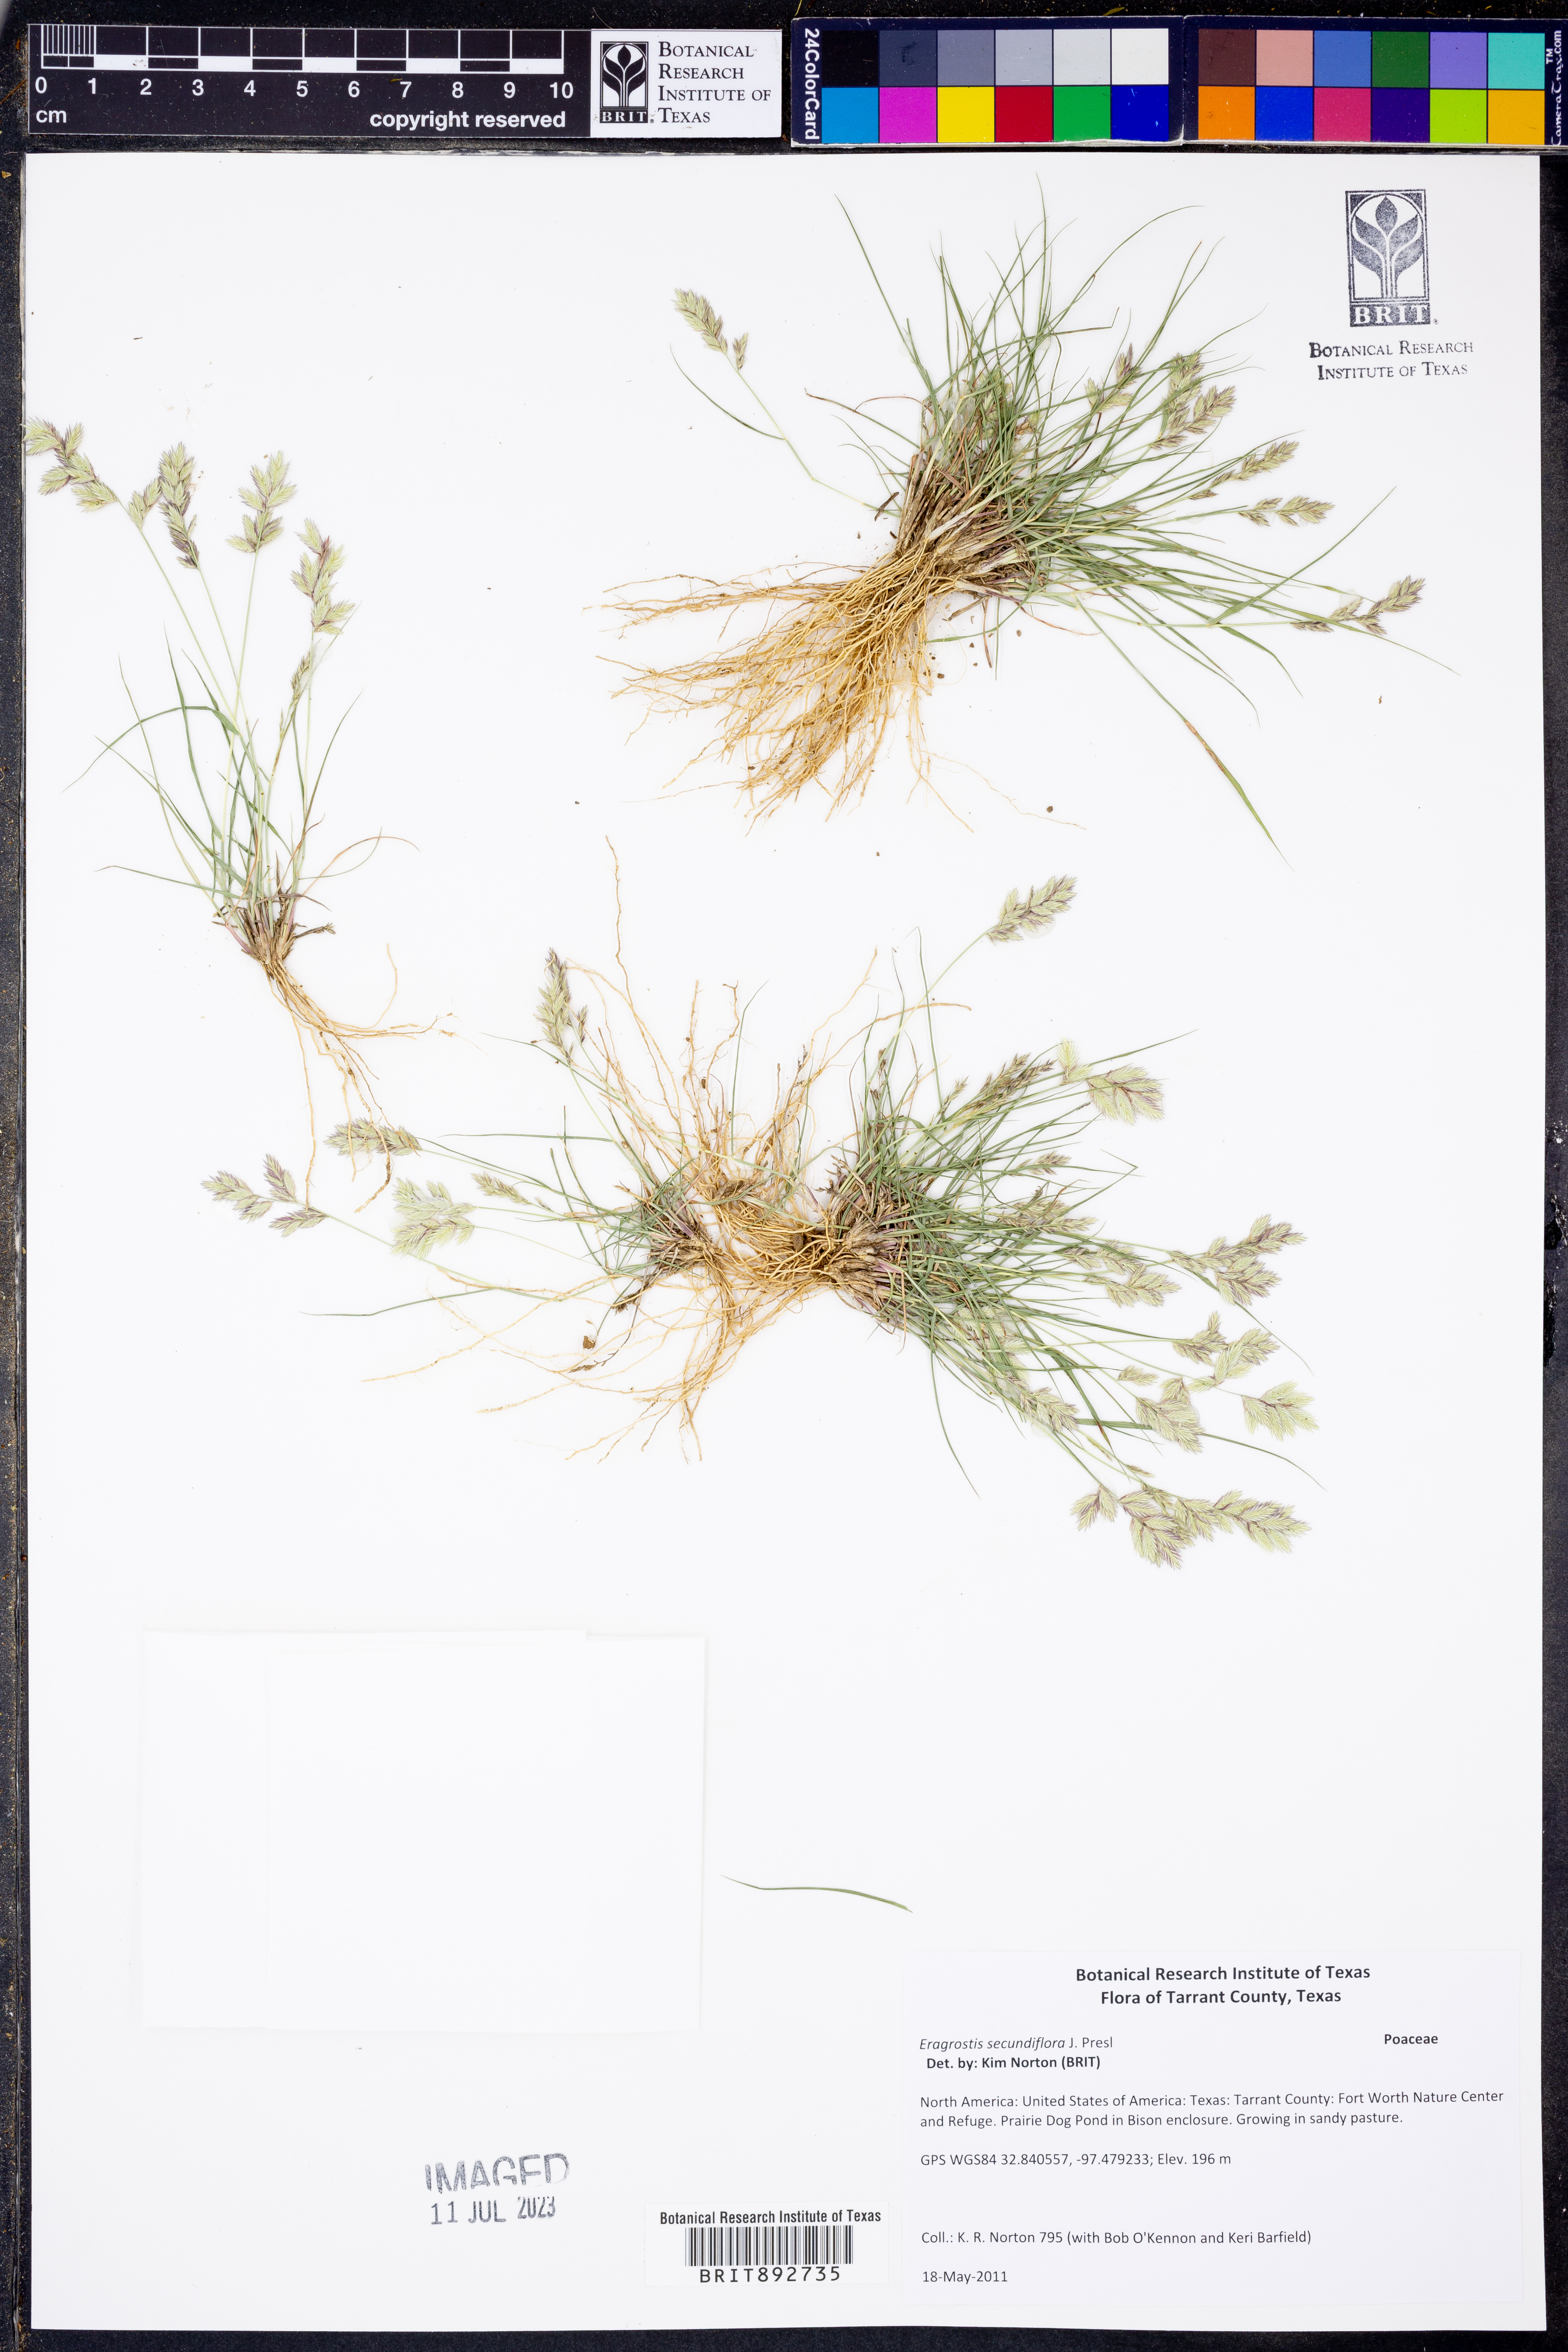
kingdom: Plantae
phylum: Tracheophyta
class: Liliopsida
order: Poales
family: Poaceae
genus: Eragrostis
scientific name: Eragrostis secundiflora
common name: Red love grass
